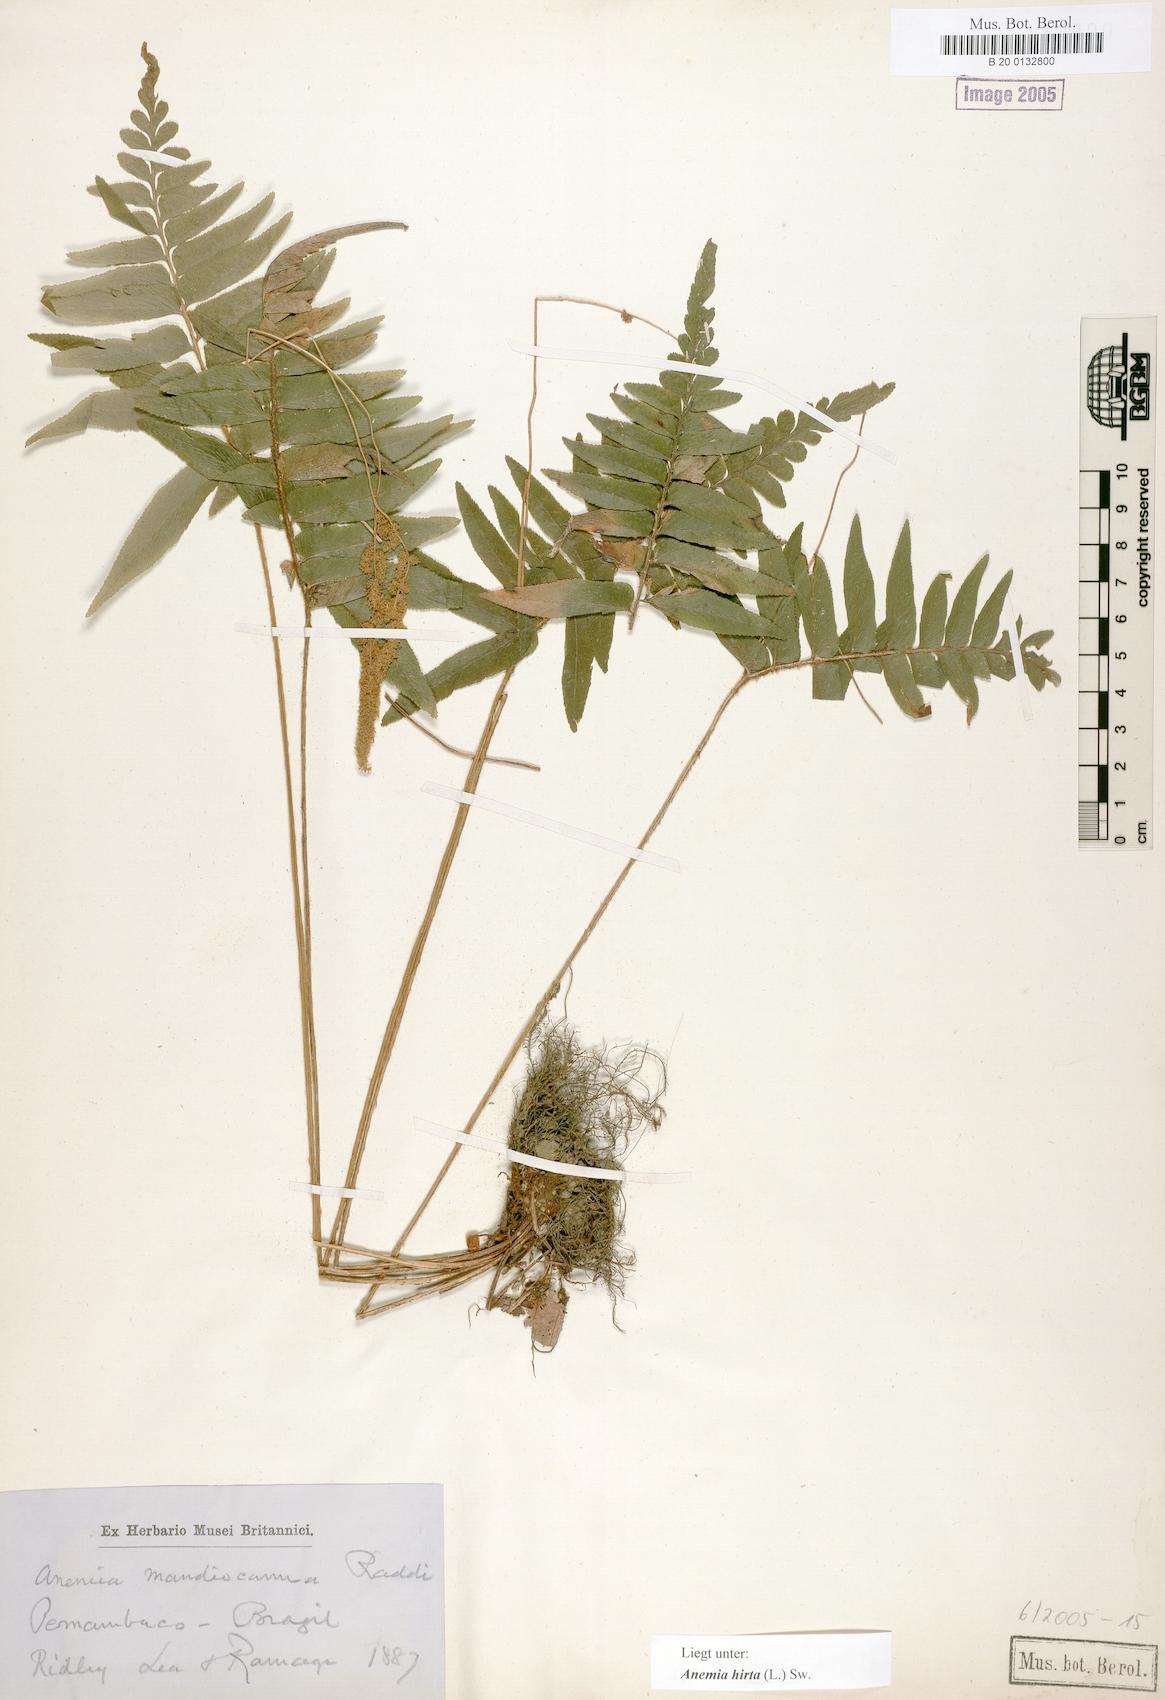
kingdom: Plantae
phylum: Tracheophyta
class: Polypodiopsida
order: Schizaeales
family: Anemiaceae
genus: Anemia
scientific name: Anemia hirta
